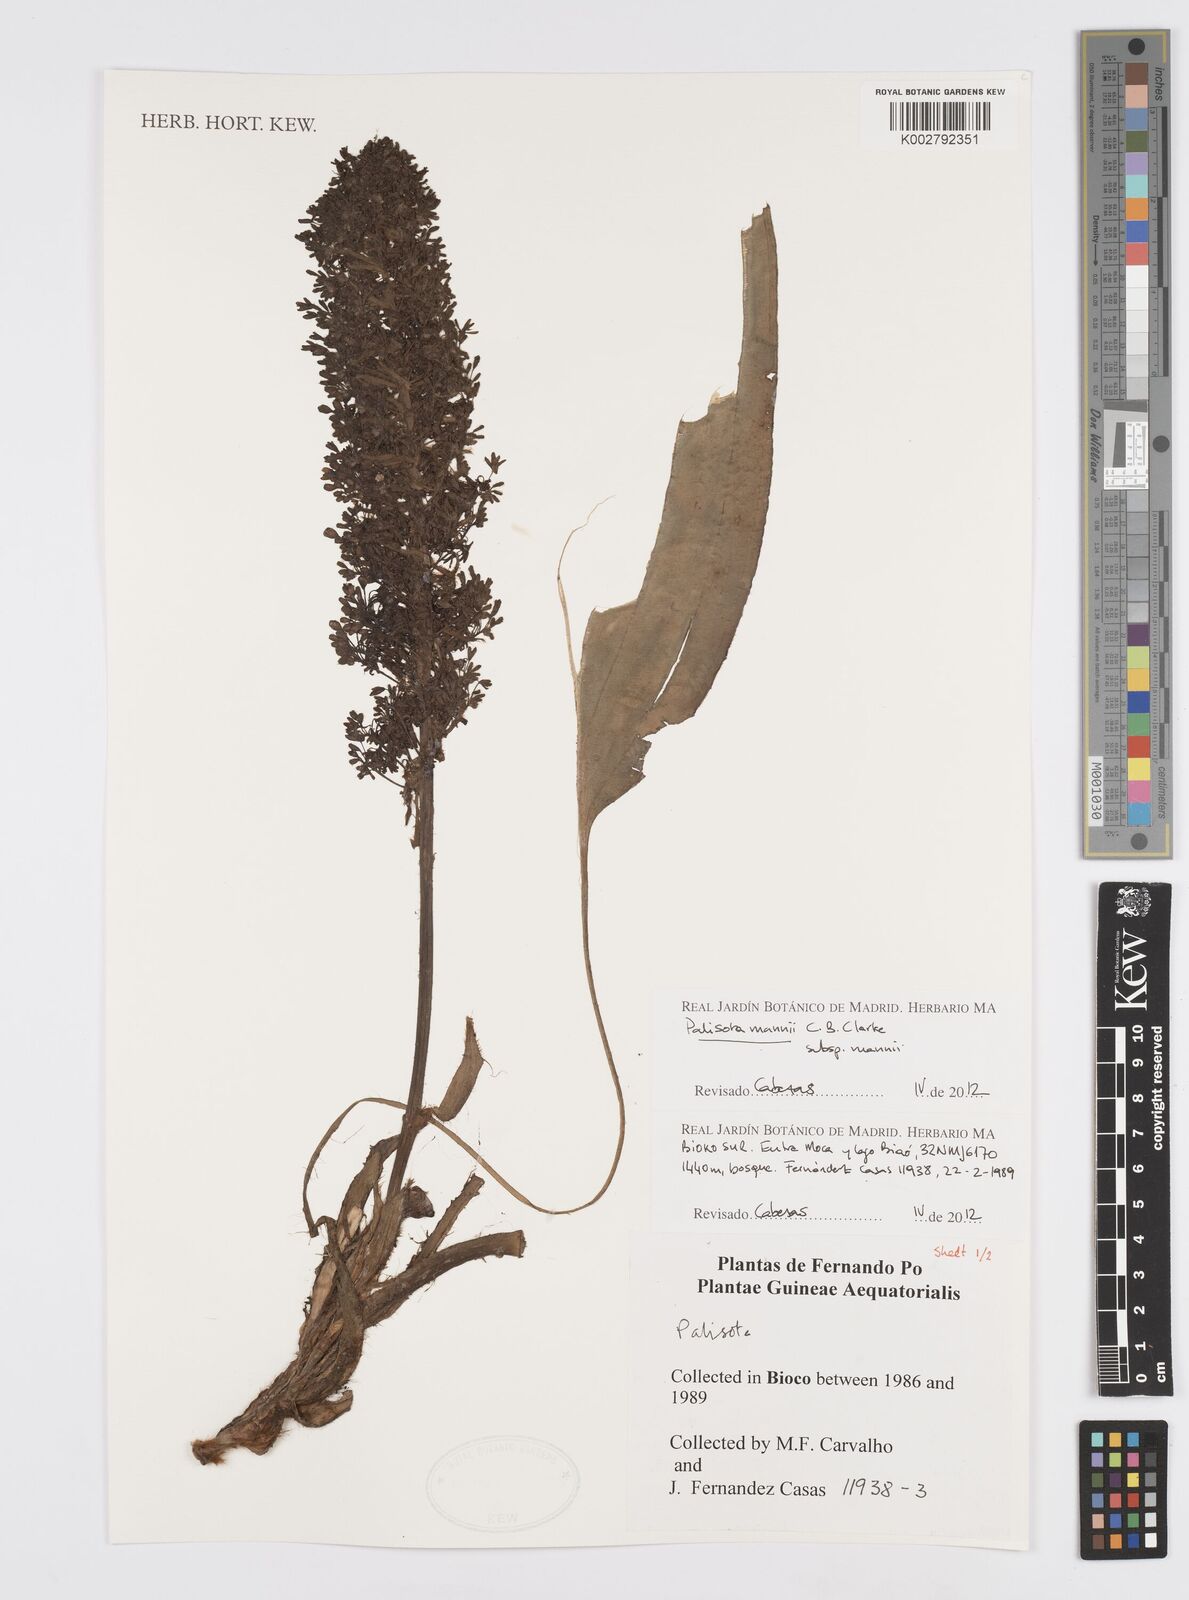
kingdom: Plantae
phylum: Tracheophyta
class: Liliopsida
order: Commelinales
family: Commelinaceae
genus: Palisota
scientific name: Palisota mannii
